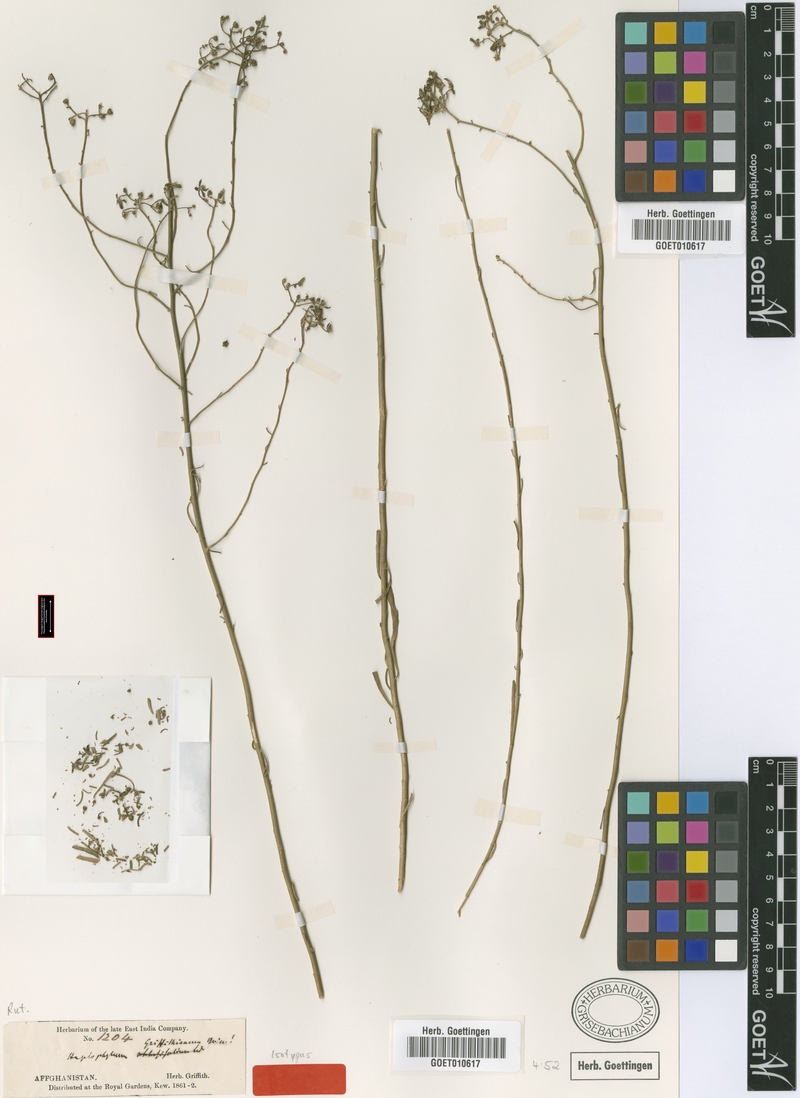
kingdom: Plantae
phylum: Tracheophyta
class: Magnoliopsida
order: Sapindales
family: Rutaceae
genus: Haplophyllum
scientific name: Haplophyllum griffithianum
